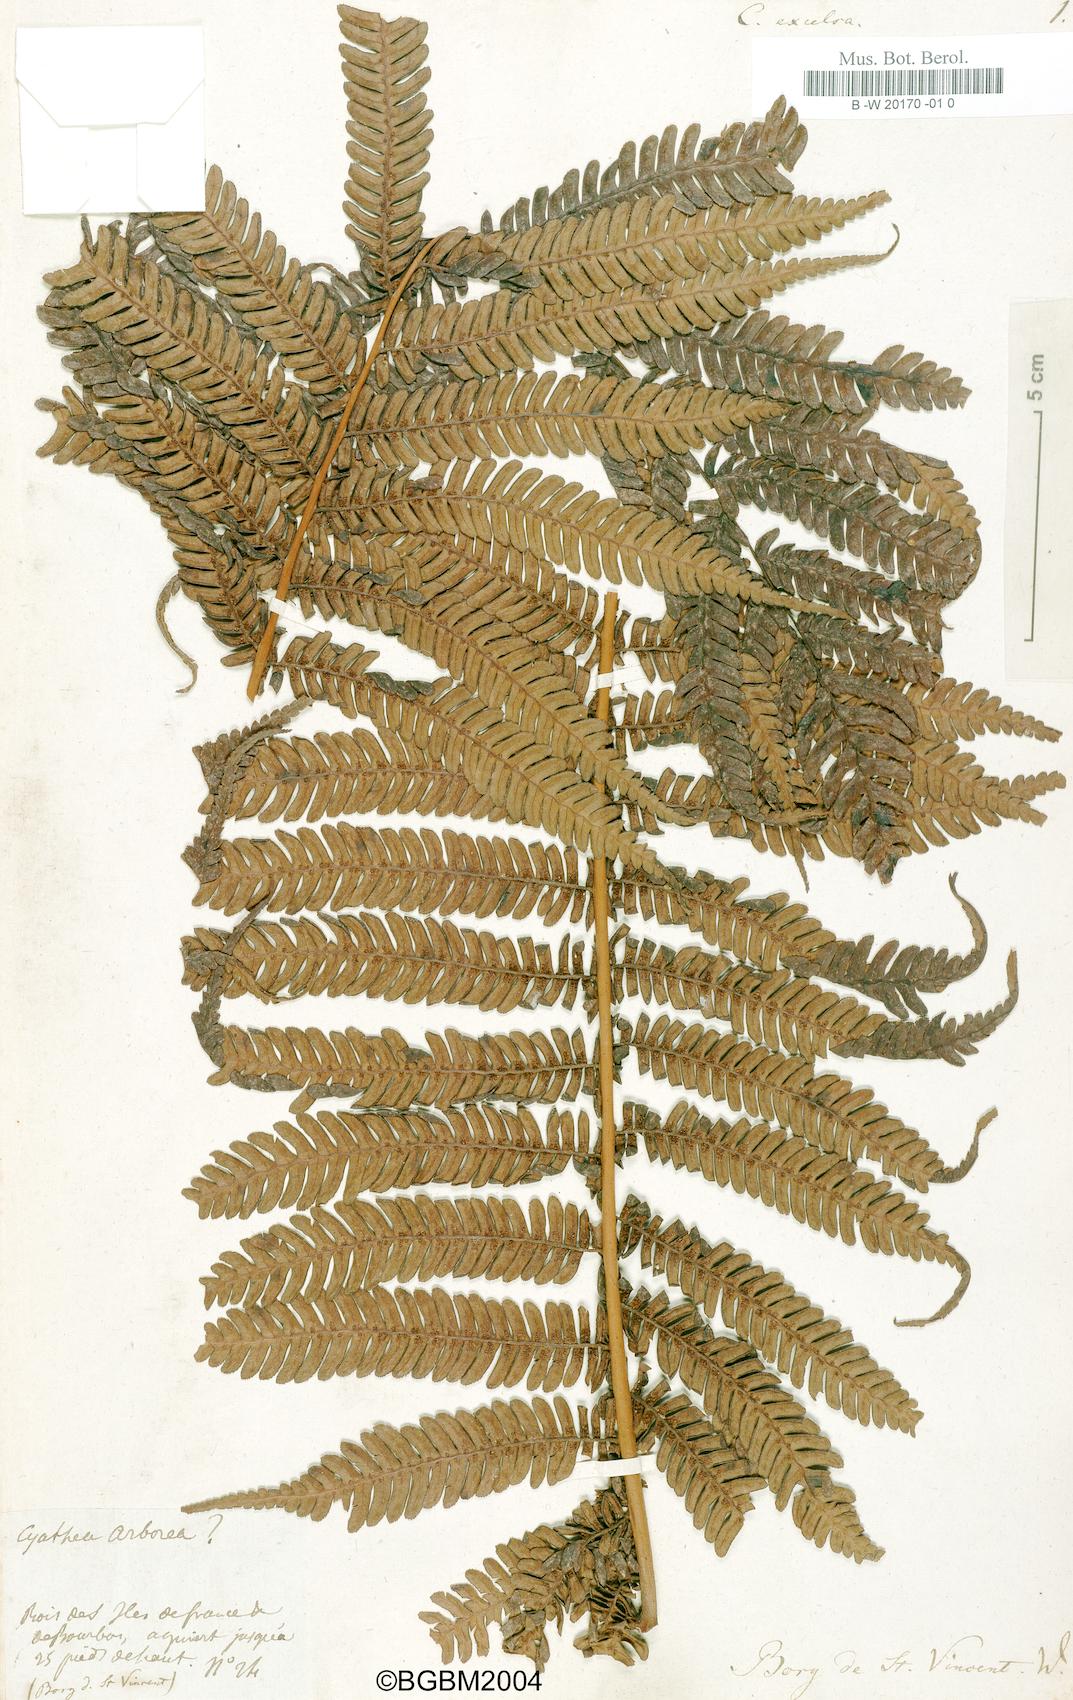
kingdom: Plantae
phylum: Tracheophyta
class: Polypodiopsida
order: Cyatheales
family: Cyatheaceae
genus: Alsophila
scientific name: Alsophila
